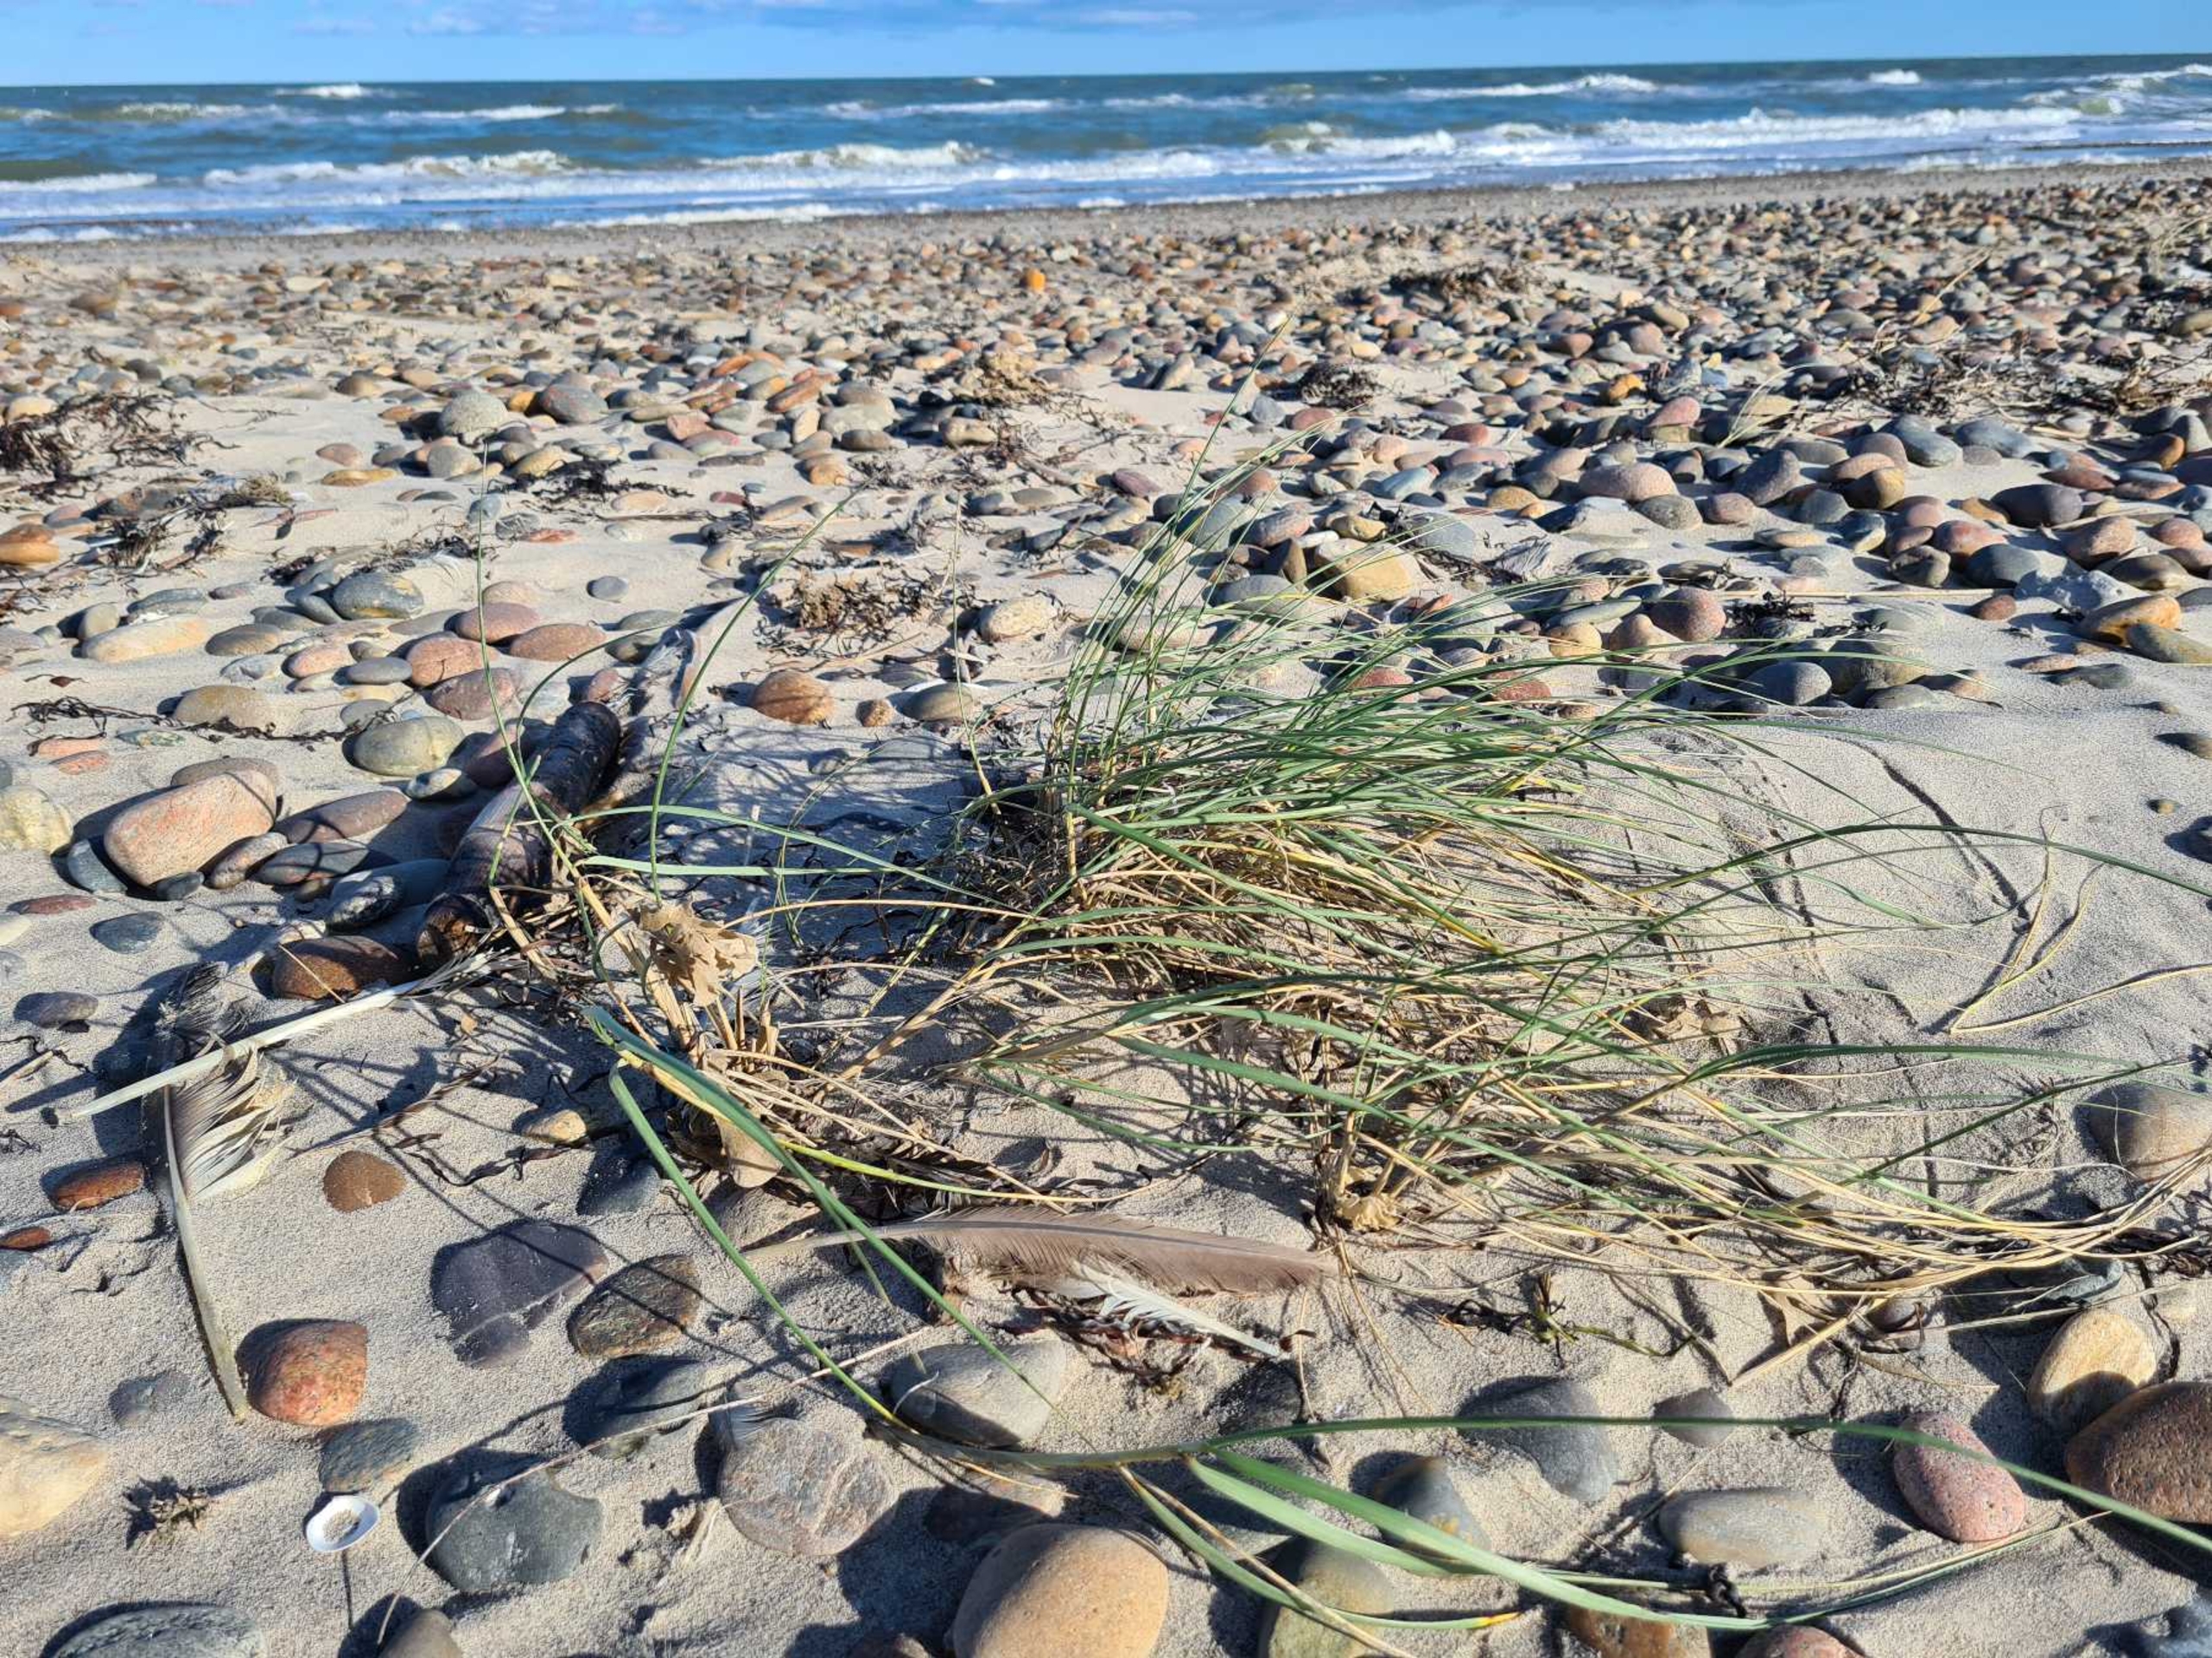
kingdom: Plantae
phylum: Tracheophyta
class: Liliopsida
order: Poales
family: Poaceae
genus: Calamagrostis
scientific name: Calamagrostis arenaria
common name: Sand-hjælme
